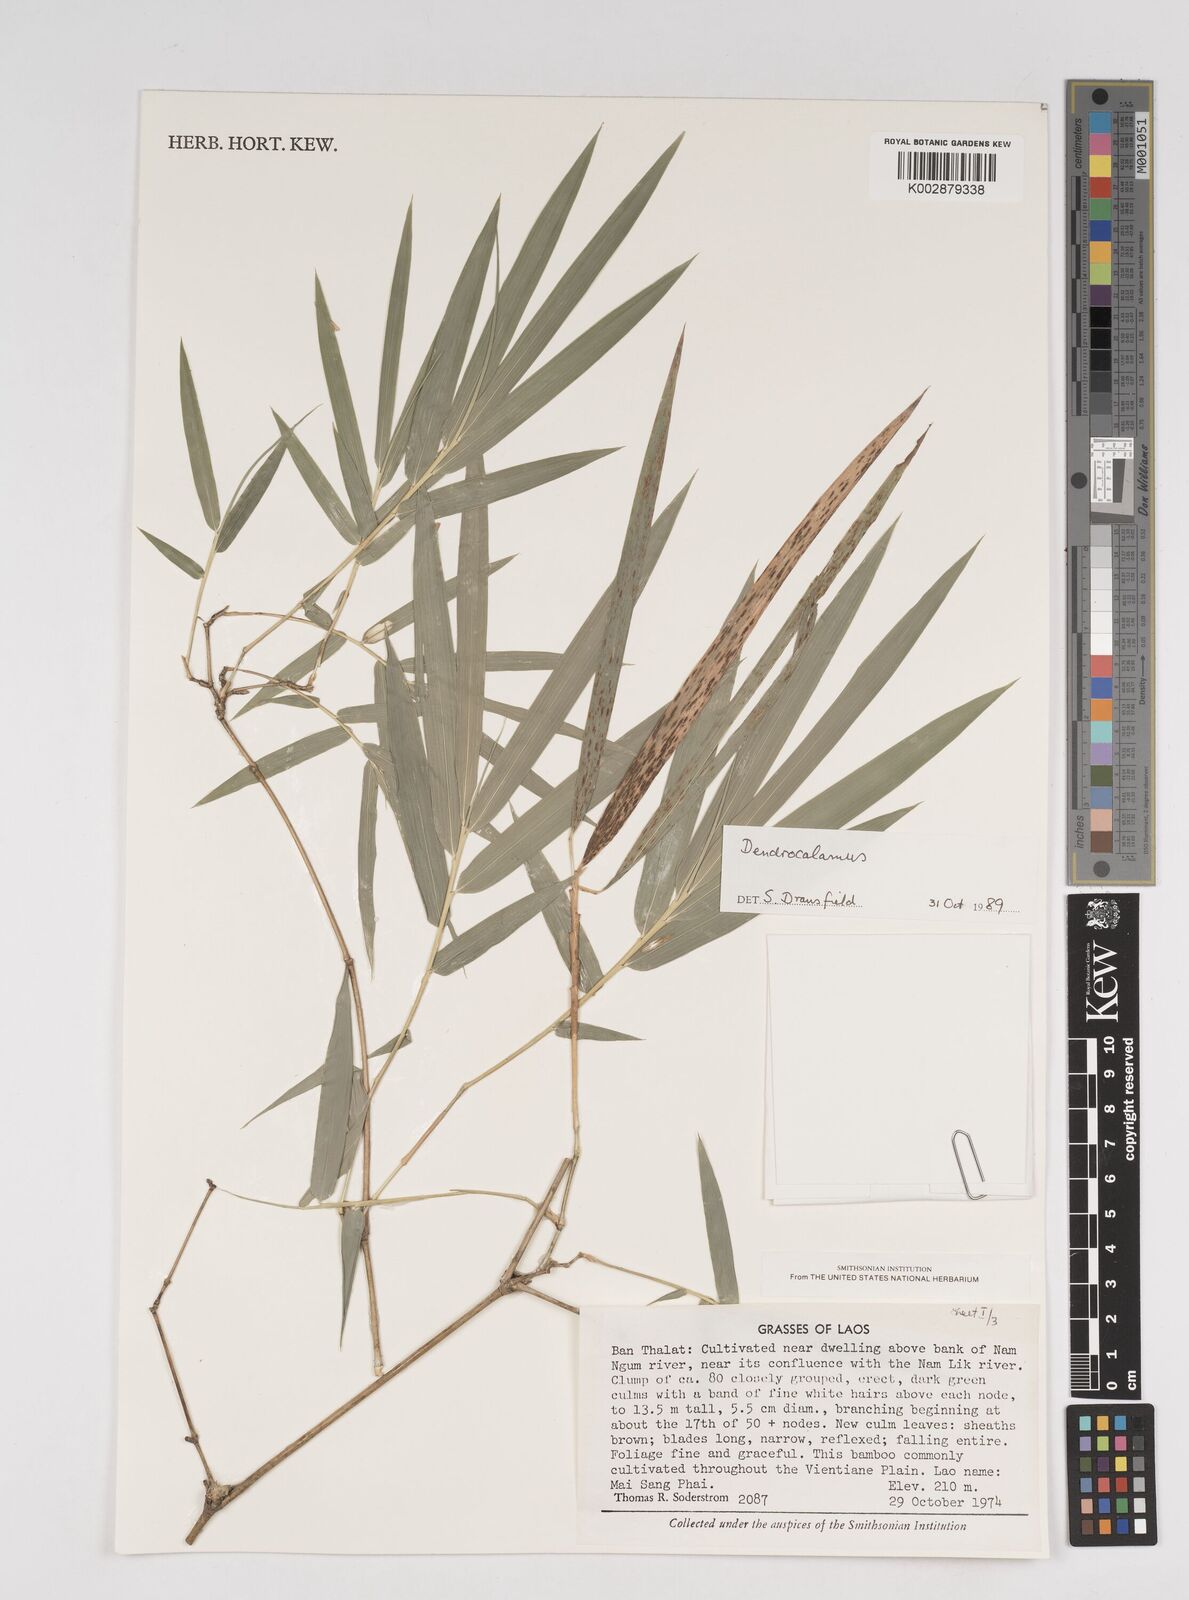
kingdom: Plantae
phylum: Tracheophyta
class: Liliopsida
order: Poales
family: Poaceae
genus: Dendrocalamus
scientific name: Dendrocalamus
